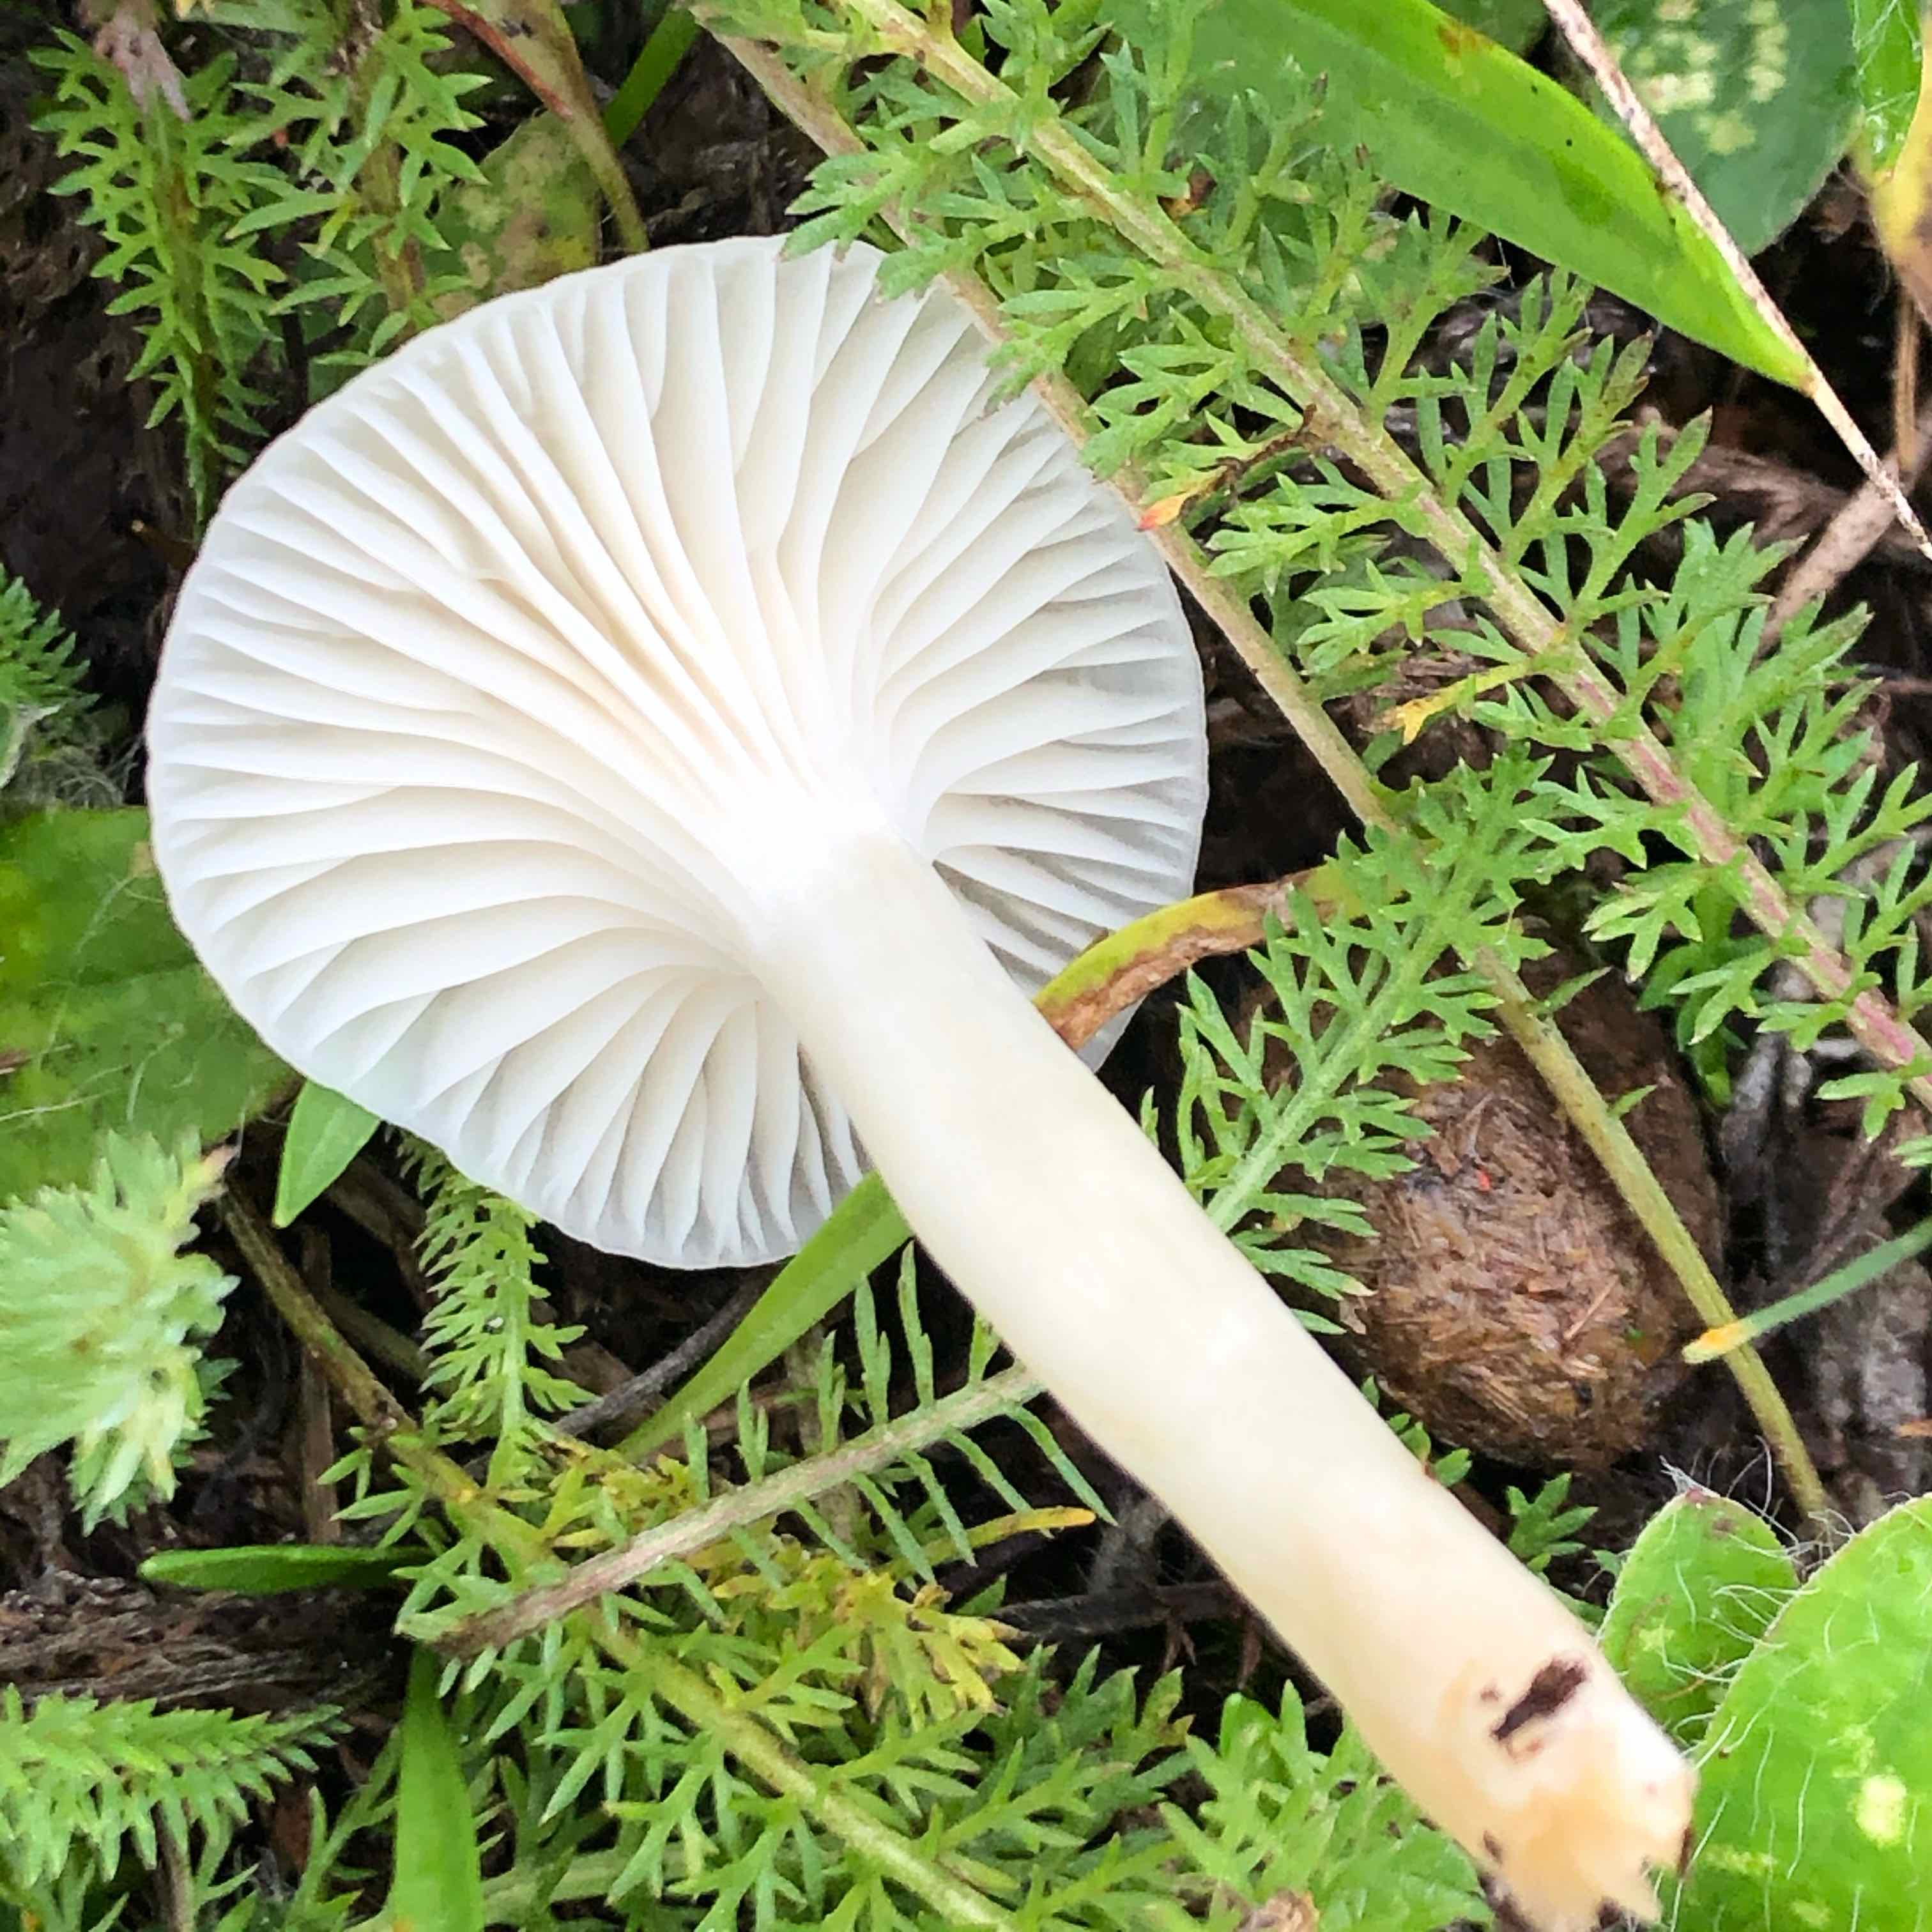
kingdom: Fungi
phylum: Basidiomycota
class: Agaricomycetes
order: Agaricales
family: Hygrophoraceae
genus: Cuphophyllus
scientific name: Cuphophyllus virgineus
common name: snehvid vokshat
